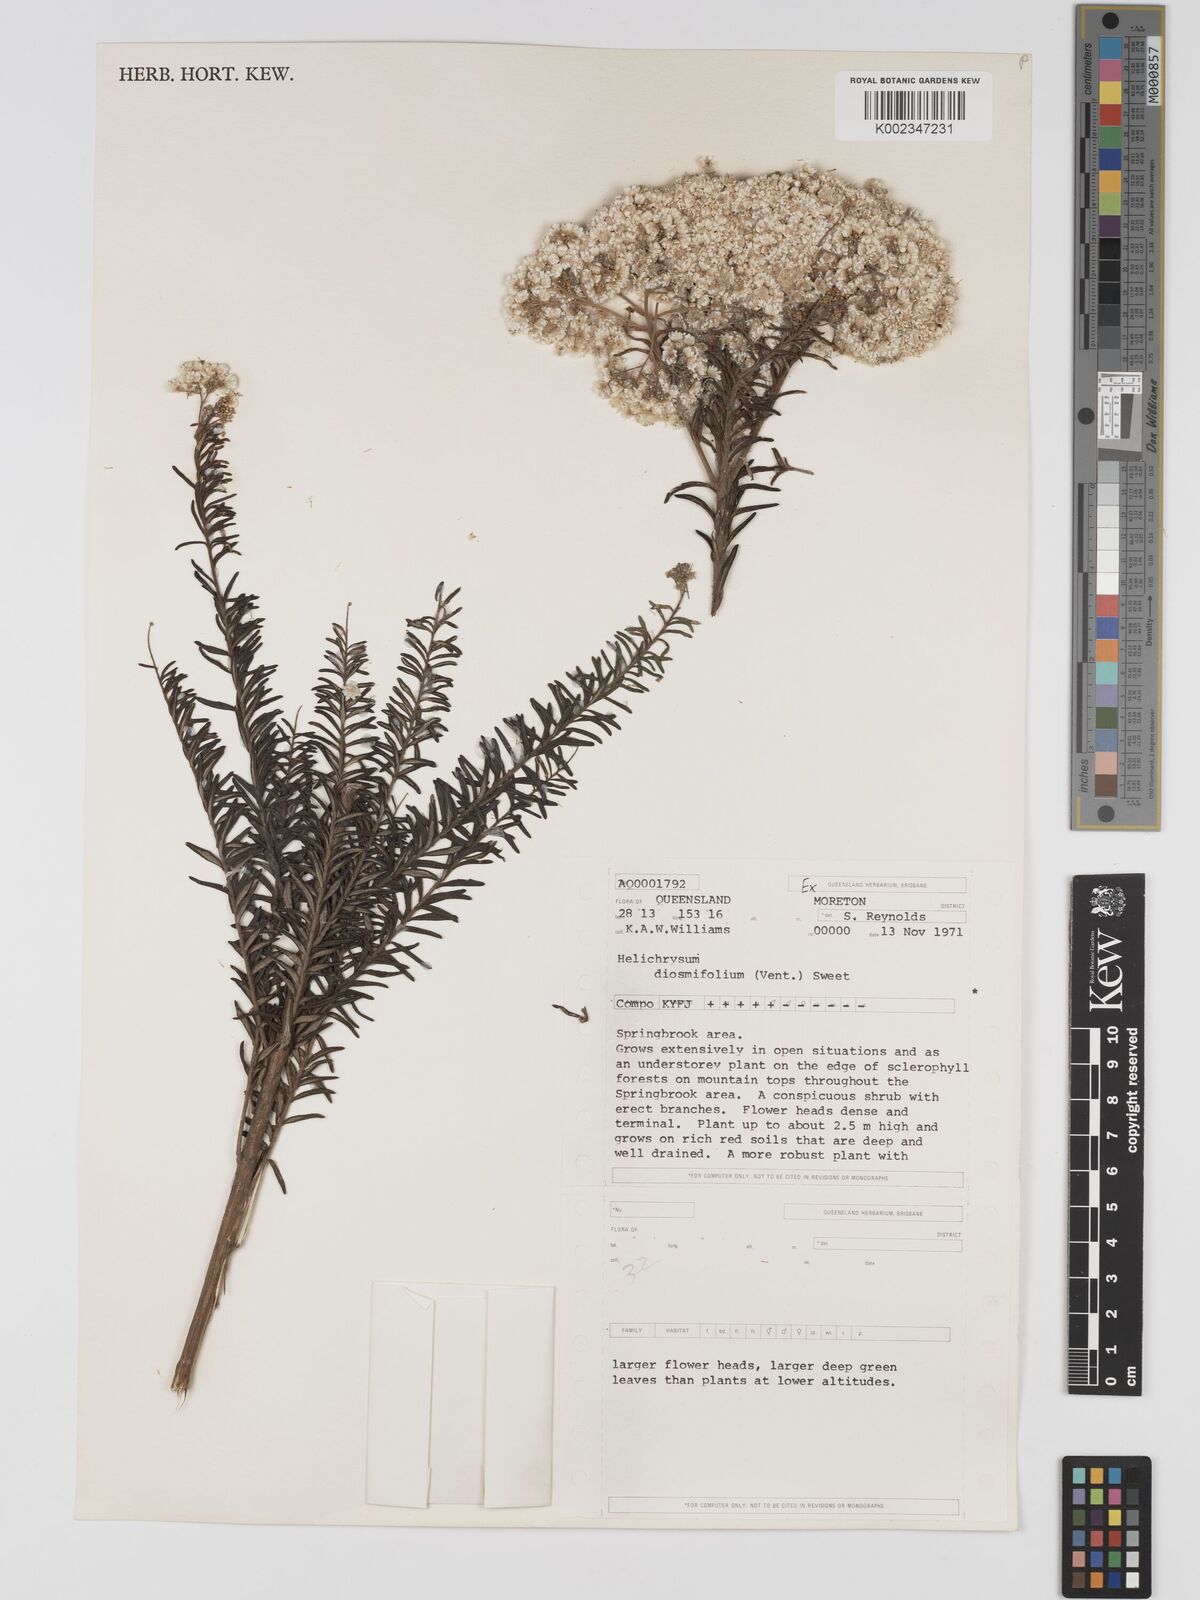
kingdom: Plantae
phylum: Tracheophyta
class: Magnoliopsida
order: Asterales
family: Asteraceae
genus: Ozothamnus
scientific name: Ozothamnus diosmifolius
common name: White-dogwood
